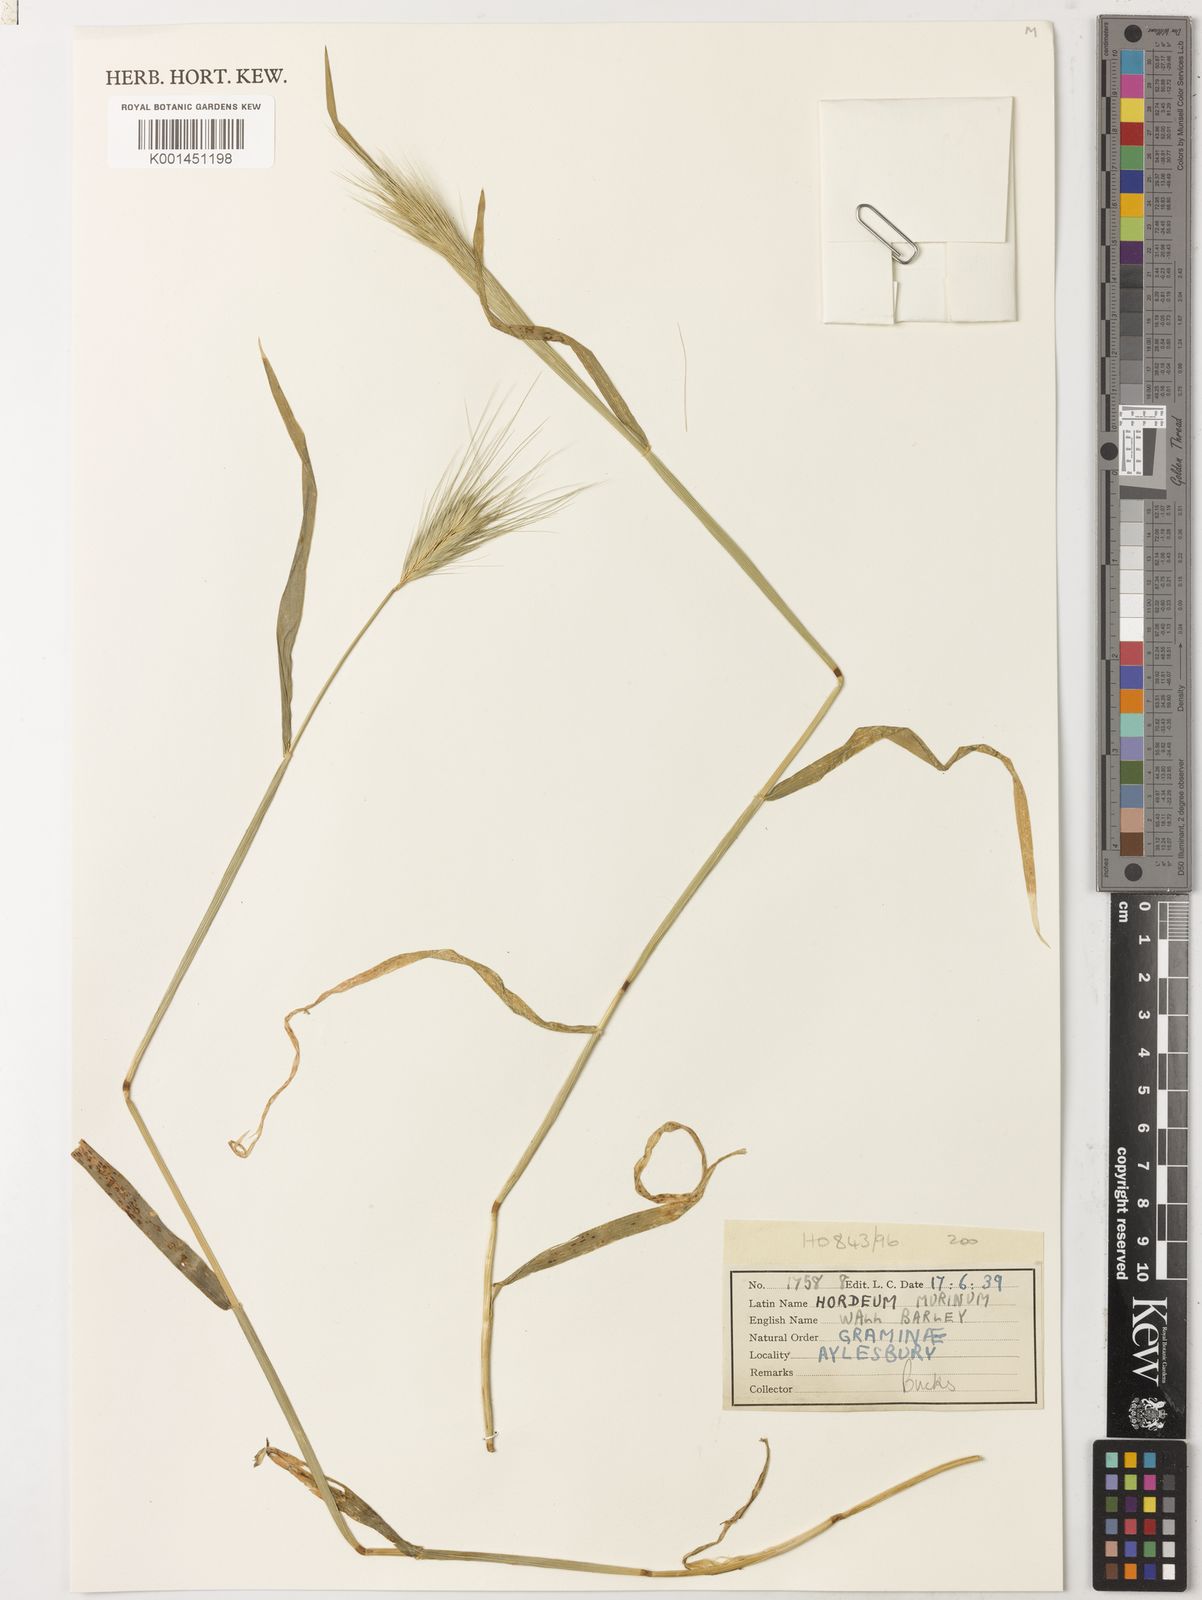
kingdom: Plantae
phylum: Tracheophyta
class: Liliopsida
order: Poales
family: Poaceae
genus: Hordeum
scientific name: Hordeum murinum
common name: Wall barley
